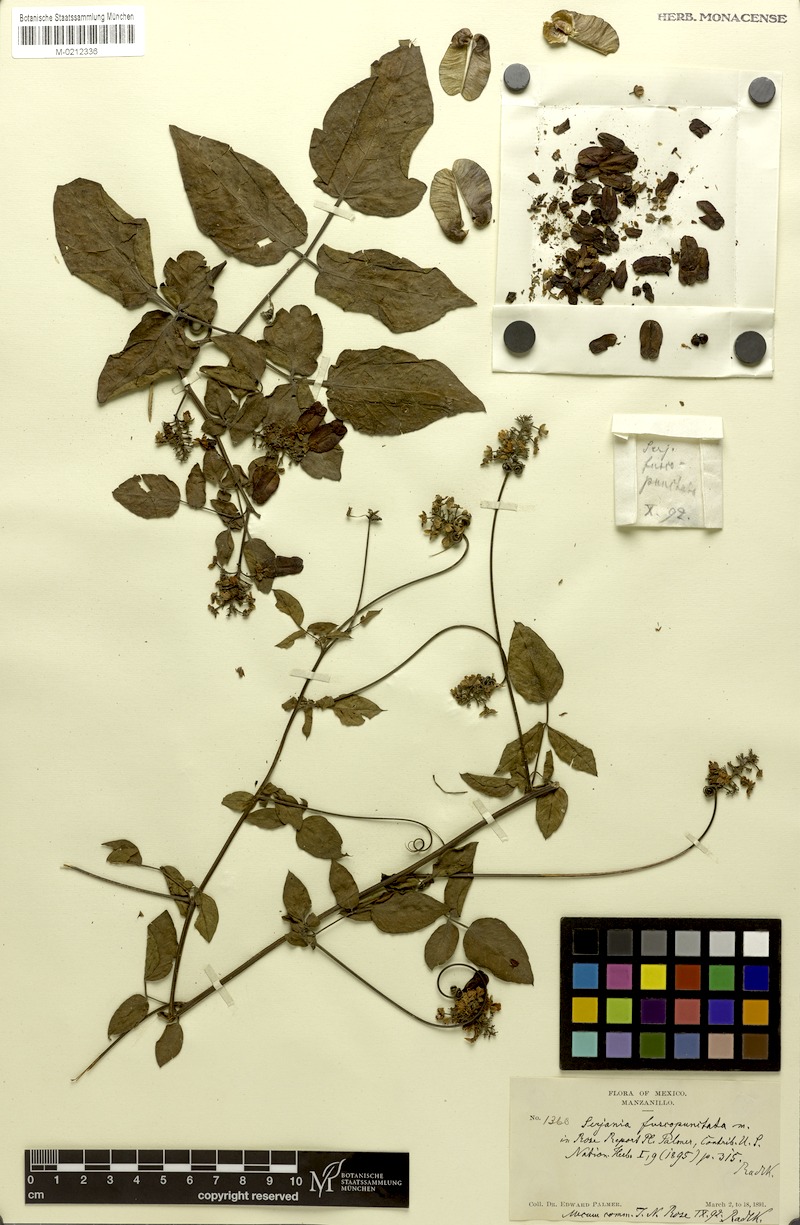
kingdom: Plantae
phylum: Tracheophyta
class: Magnoliopsida
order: Sapindales
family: Sapindaceae
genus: Serjania
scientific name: Serjania fuscopunctata
